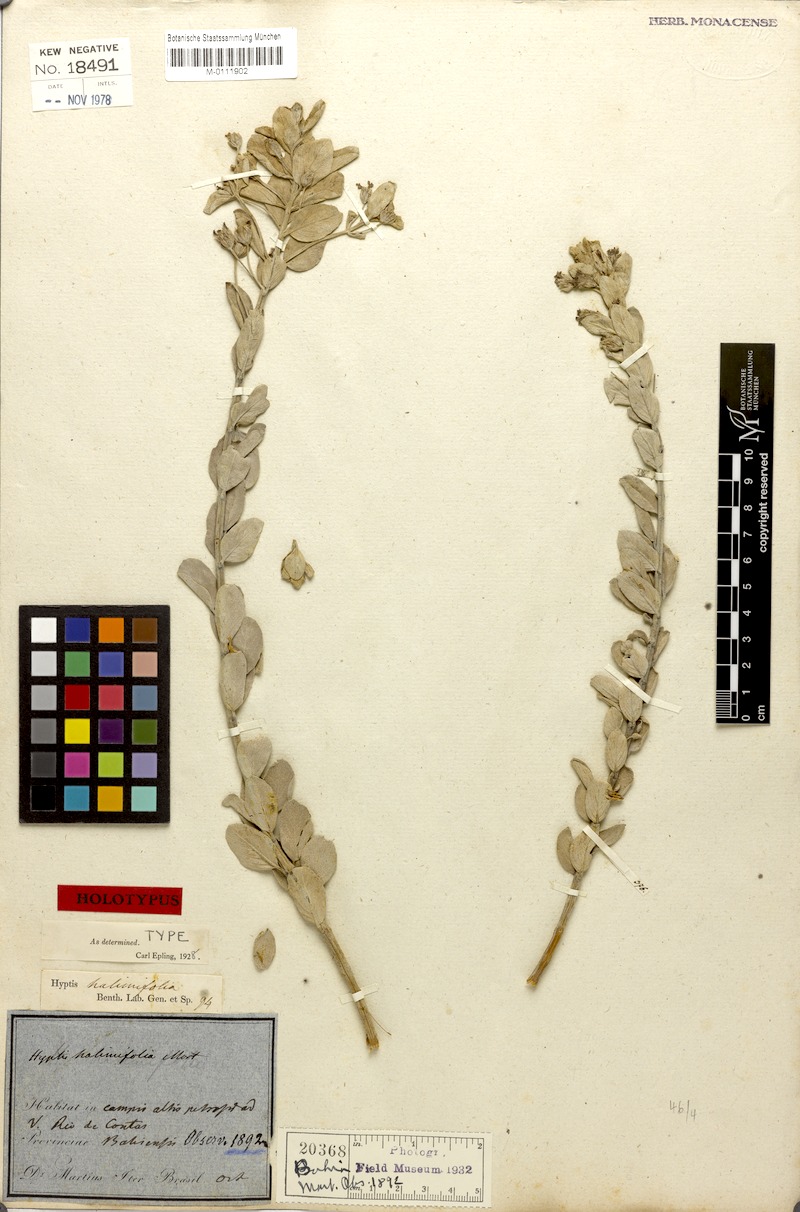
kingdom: Plantae
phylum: Tracheophyta
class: Magnoliopsida
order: Lamiales
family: Lamiaceae
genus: Oocephalus
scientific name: Oocephalus halimifolius
